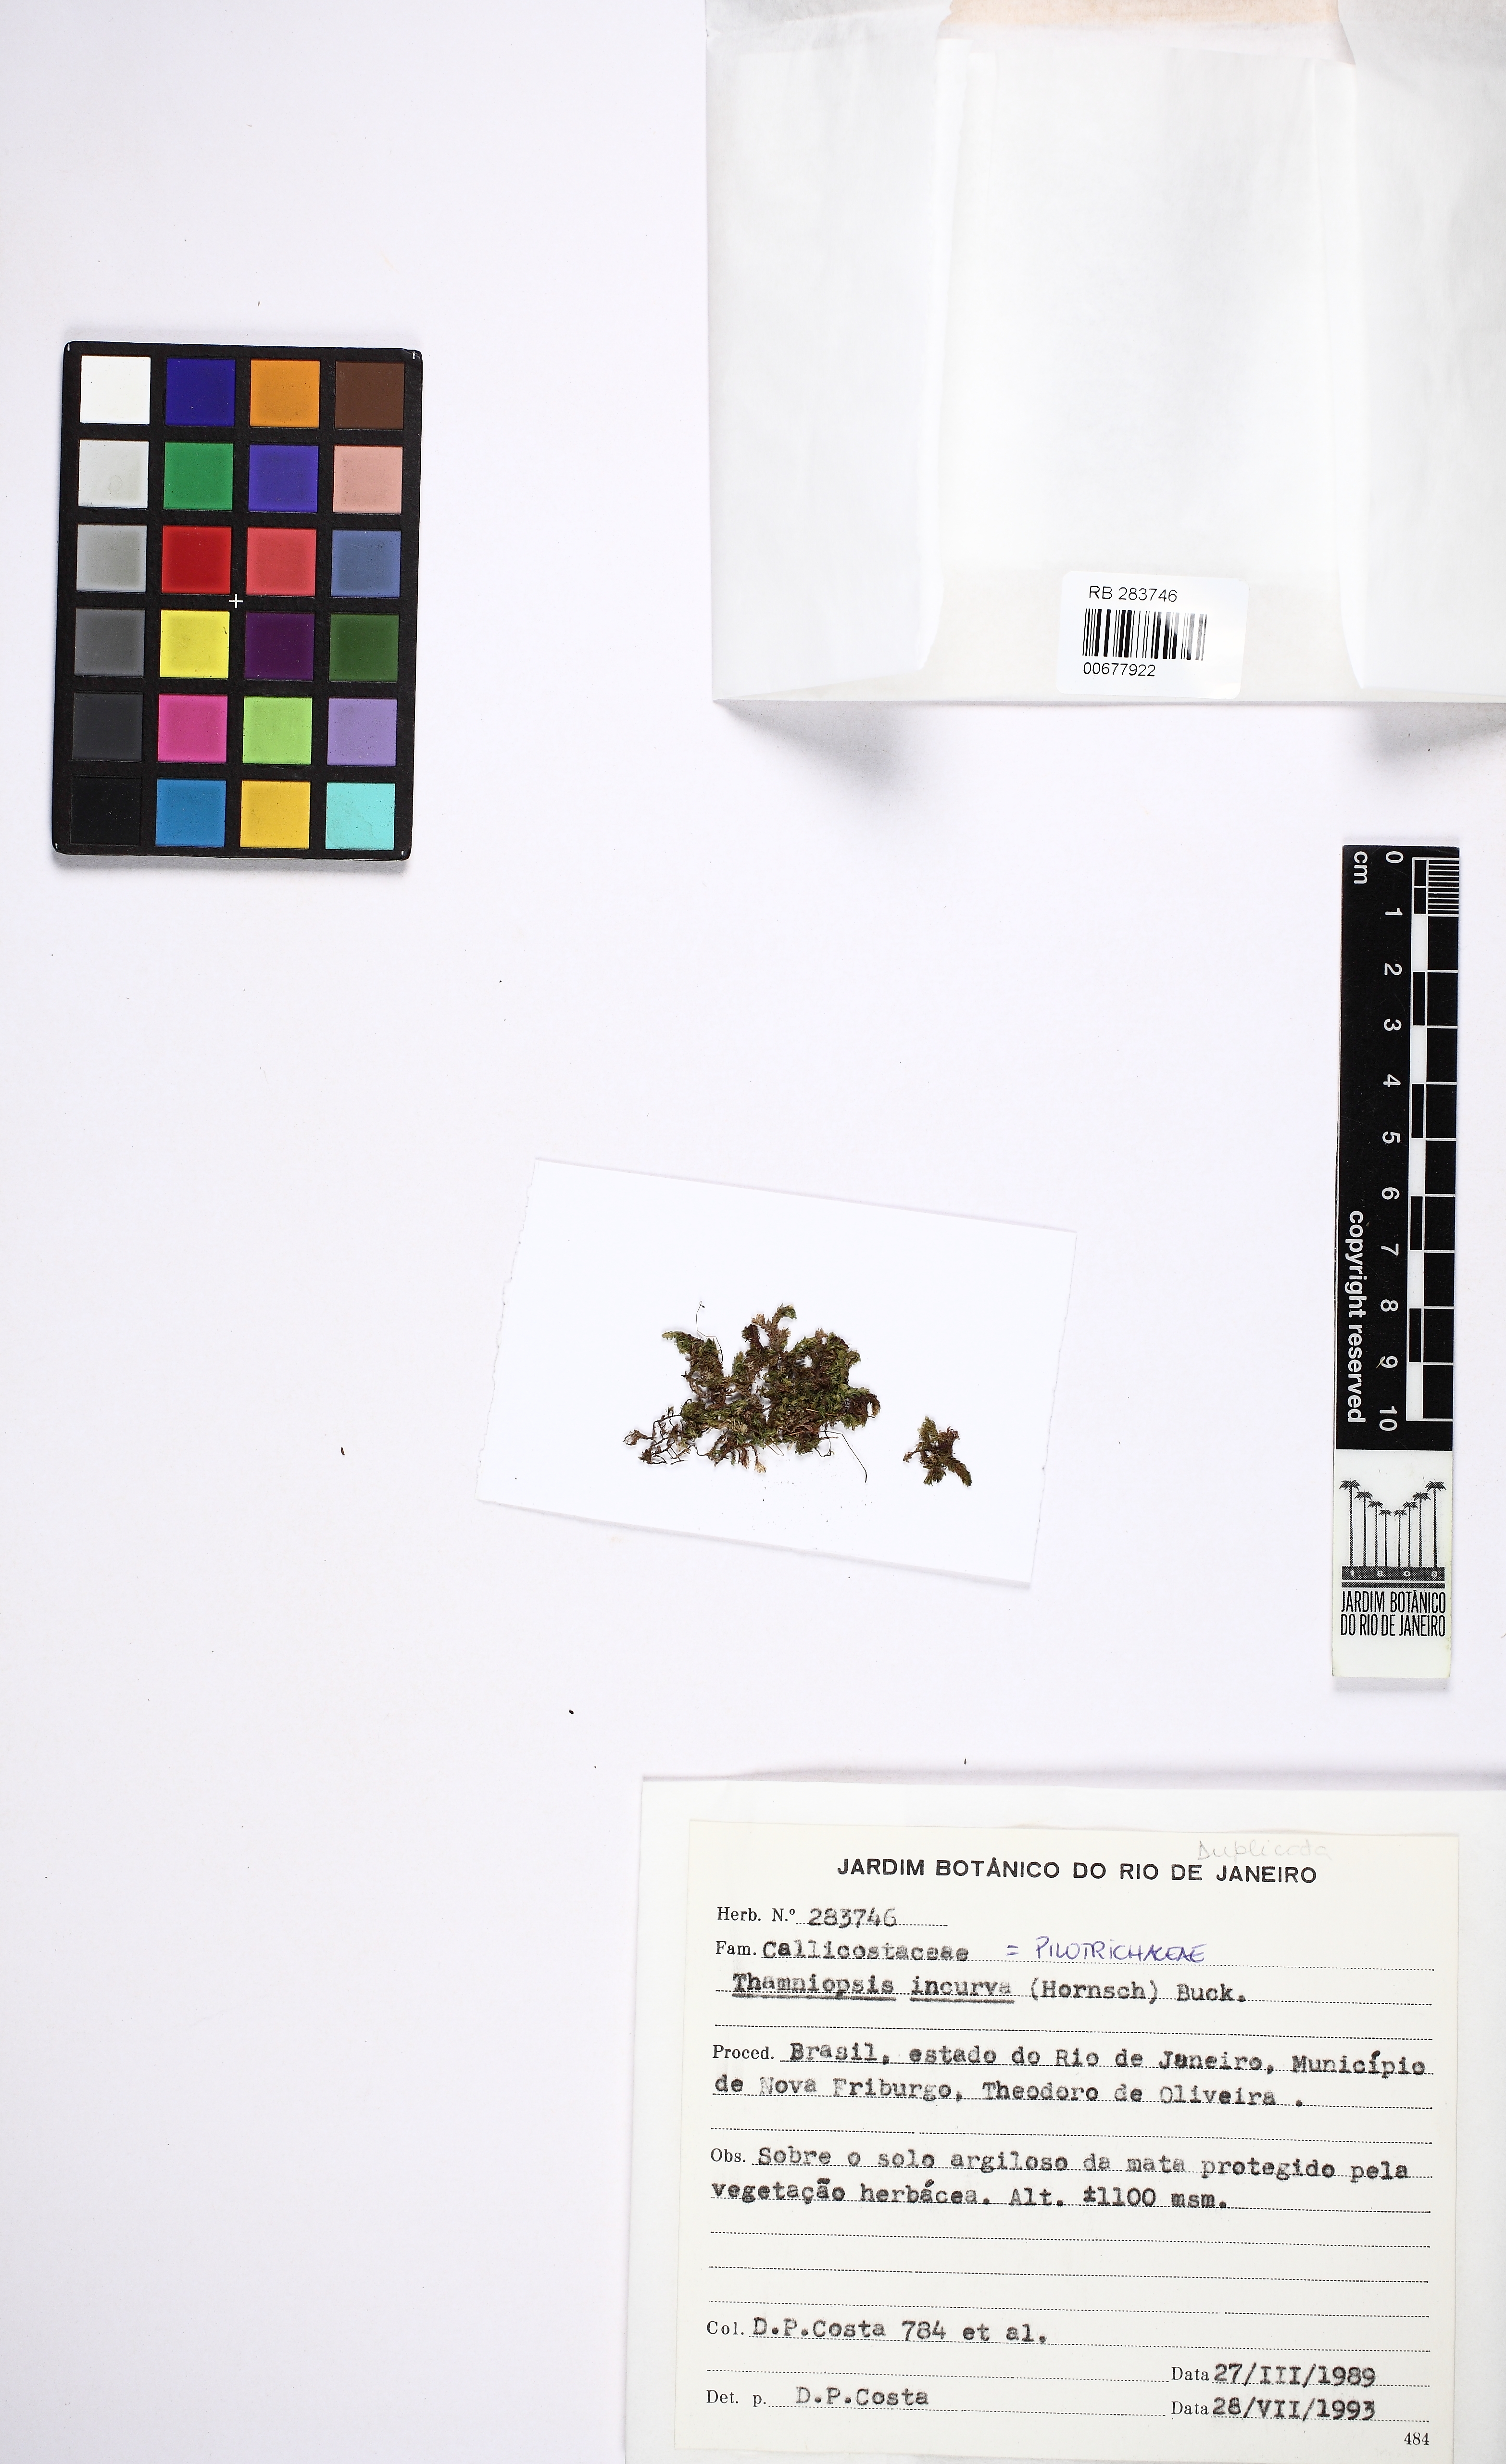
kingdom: Plantae
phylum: Bryophyta
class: Bryopsida
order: Hookeriales
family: Pilotrichaceae
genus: Thamniopsis
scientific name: Thamniopsis incurva
